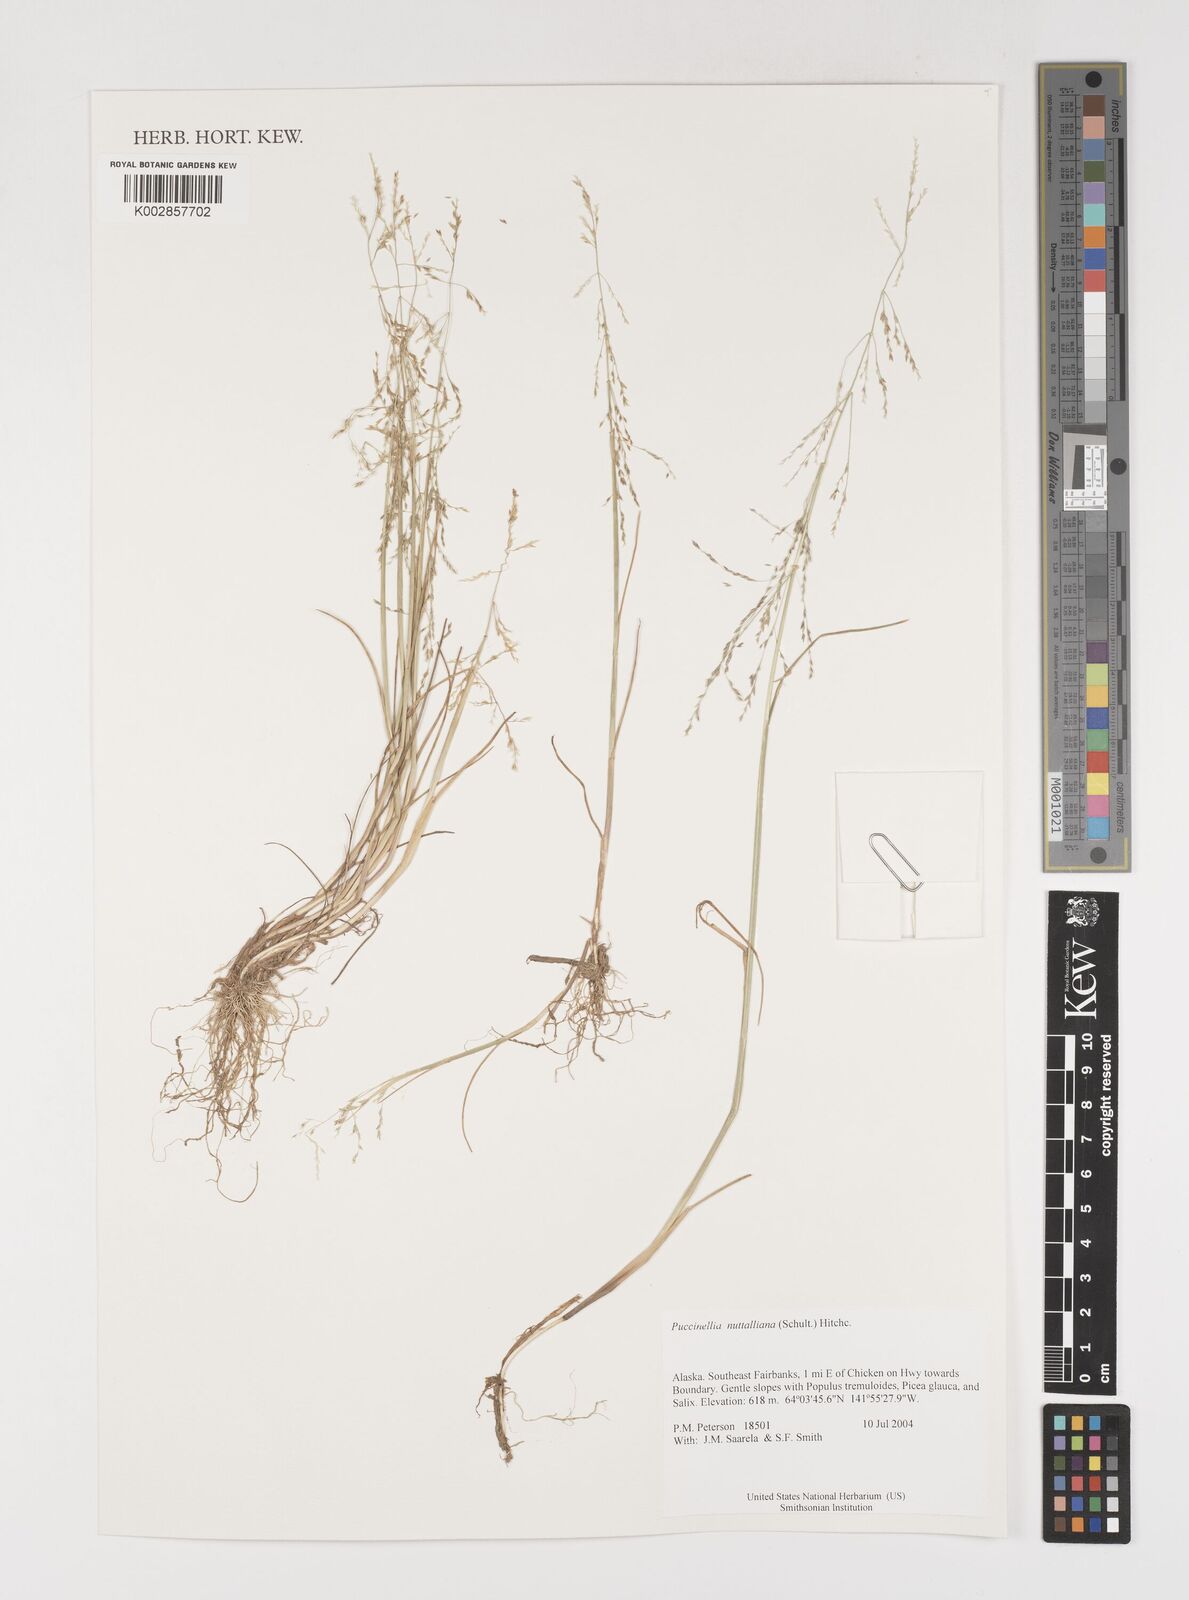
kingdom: Plantae
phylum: Tracheophyta
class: Liliopsida
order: Poales
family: Poaceae
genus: Puccinellia
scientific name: Puccinellia nuttalliana
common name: Nuttall's alkali grass
